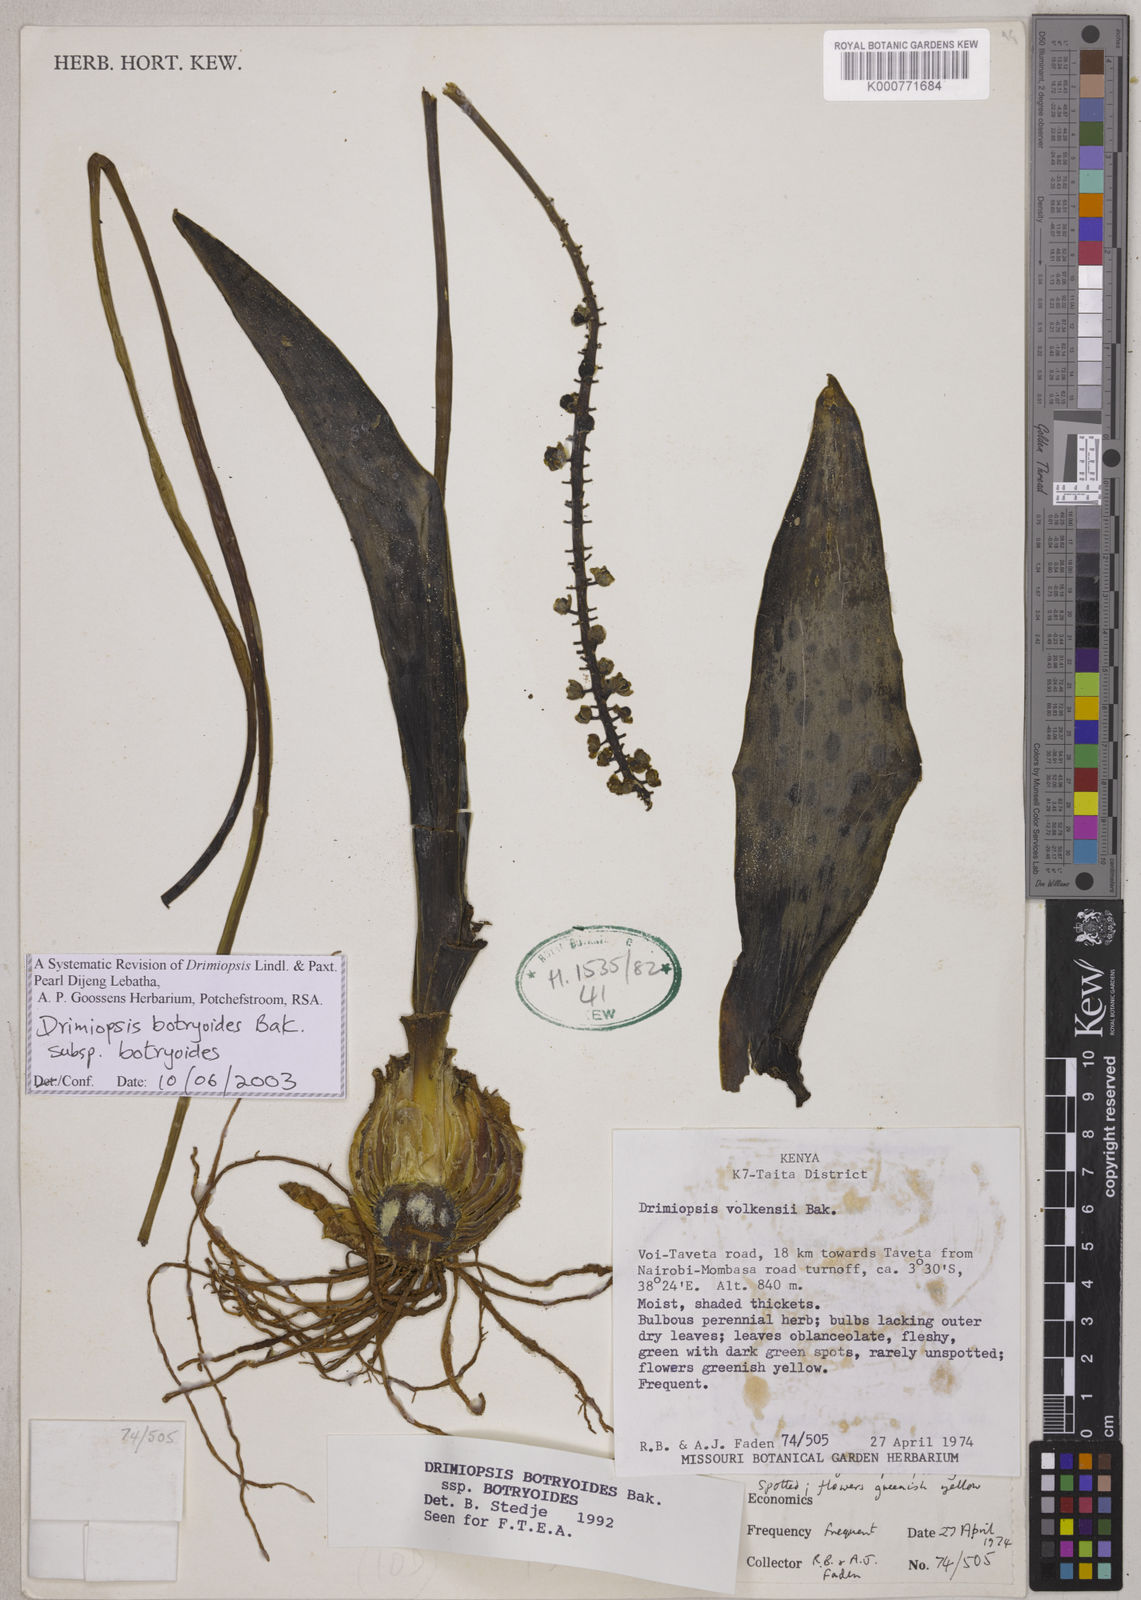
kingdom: Plantae
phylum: Tracheophyta
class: Liliopsida
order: Asparagales
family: Asparagaceae
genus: Drimiopsis
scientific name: Drimiopsis botryoides
